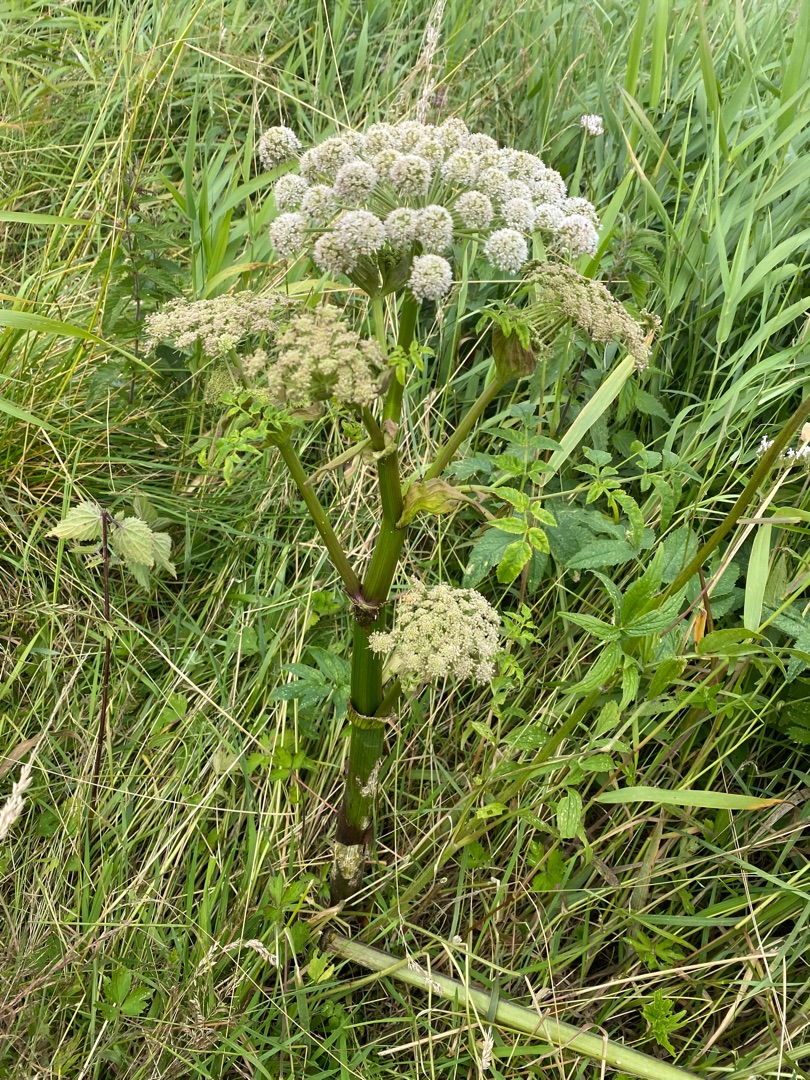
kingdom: Plantae
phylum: Tracheophyta
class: Magnoliopsida
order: Apiales
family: Apiaceae
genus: Angelica
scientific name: Angelica sylvestris
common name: Angelik
